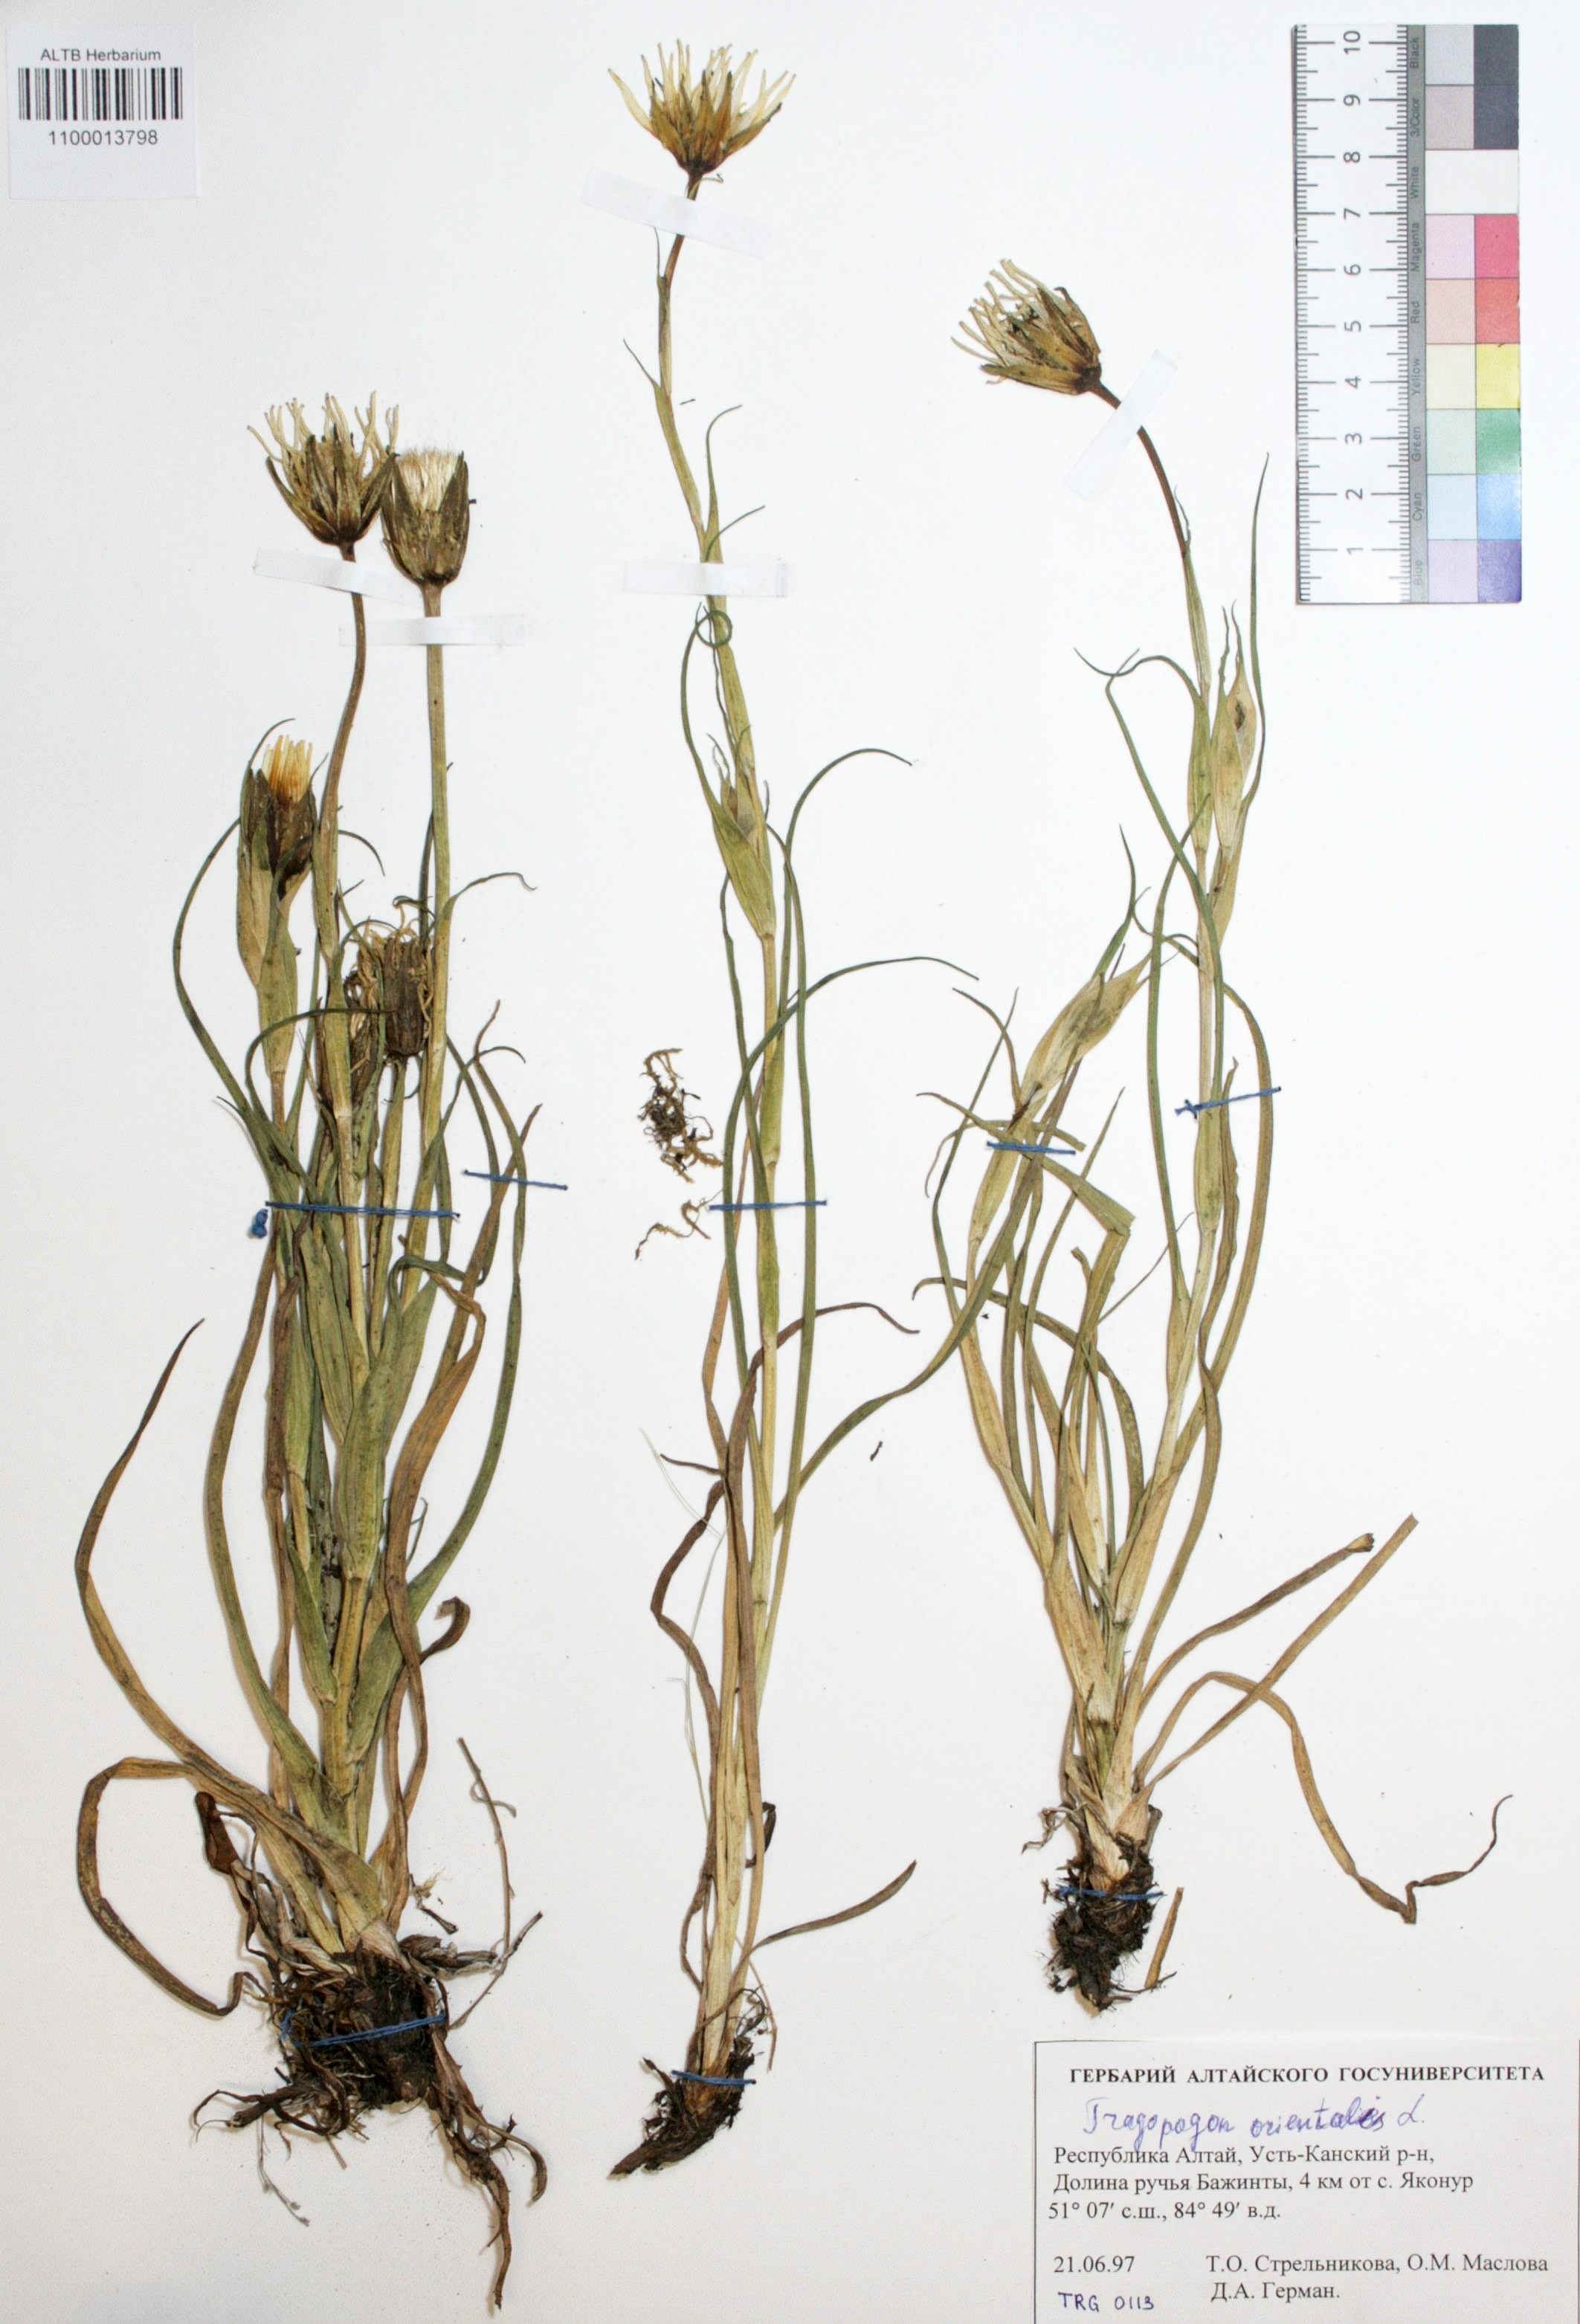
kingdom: Plantae
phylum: Tracheophyta
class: Magnoliopsida
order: Asterales
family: Asteraceae
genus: Tragopogon
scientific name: Tragopogon orientalis
